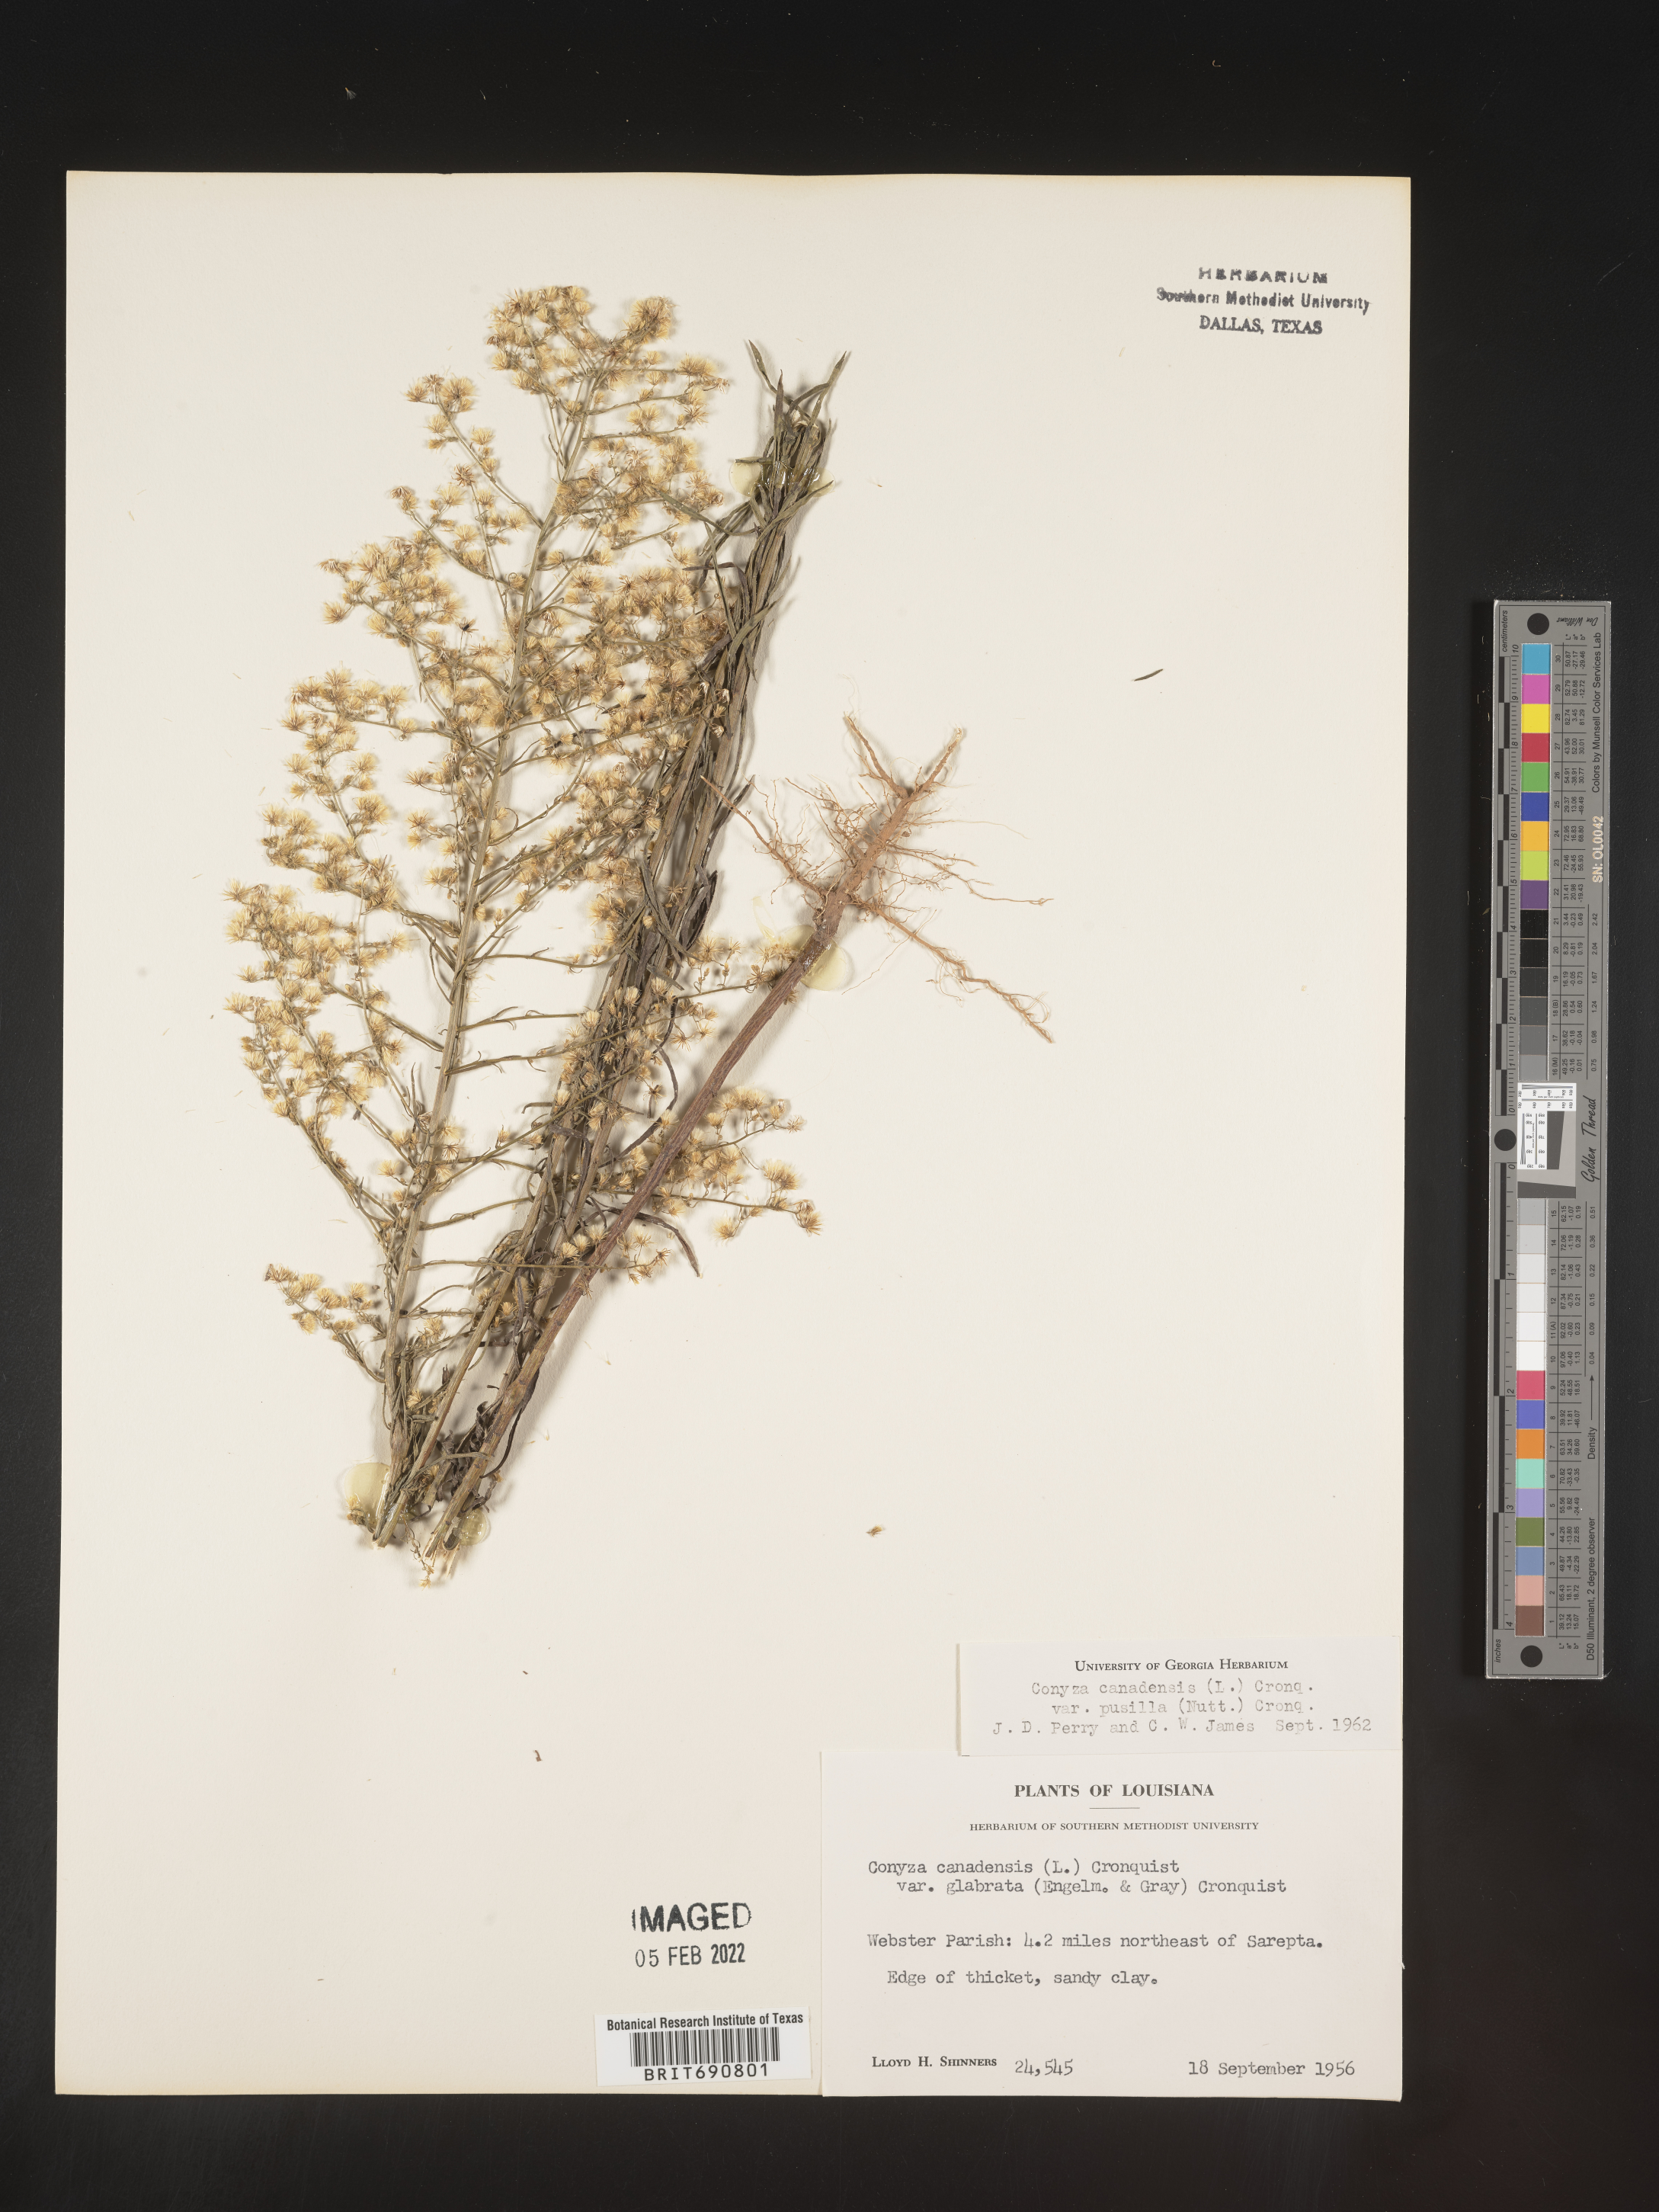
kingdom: Plantae
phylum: Tracheophyta
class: Magnoliopsida
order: Asterales
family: Asteraceae
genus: Erigeron
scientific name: Erigeron canadensis
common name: Canadian fleabane
